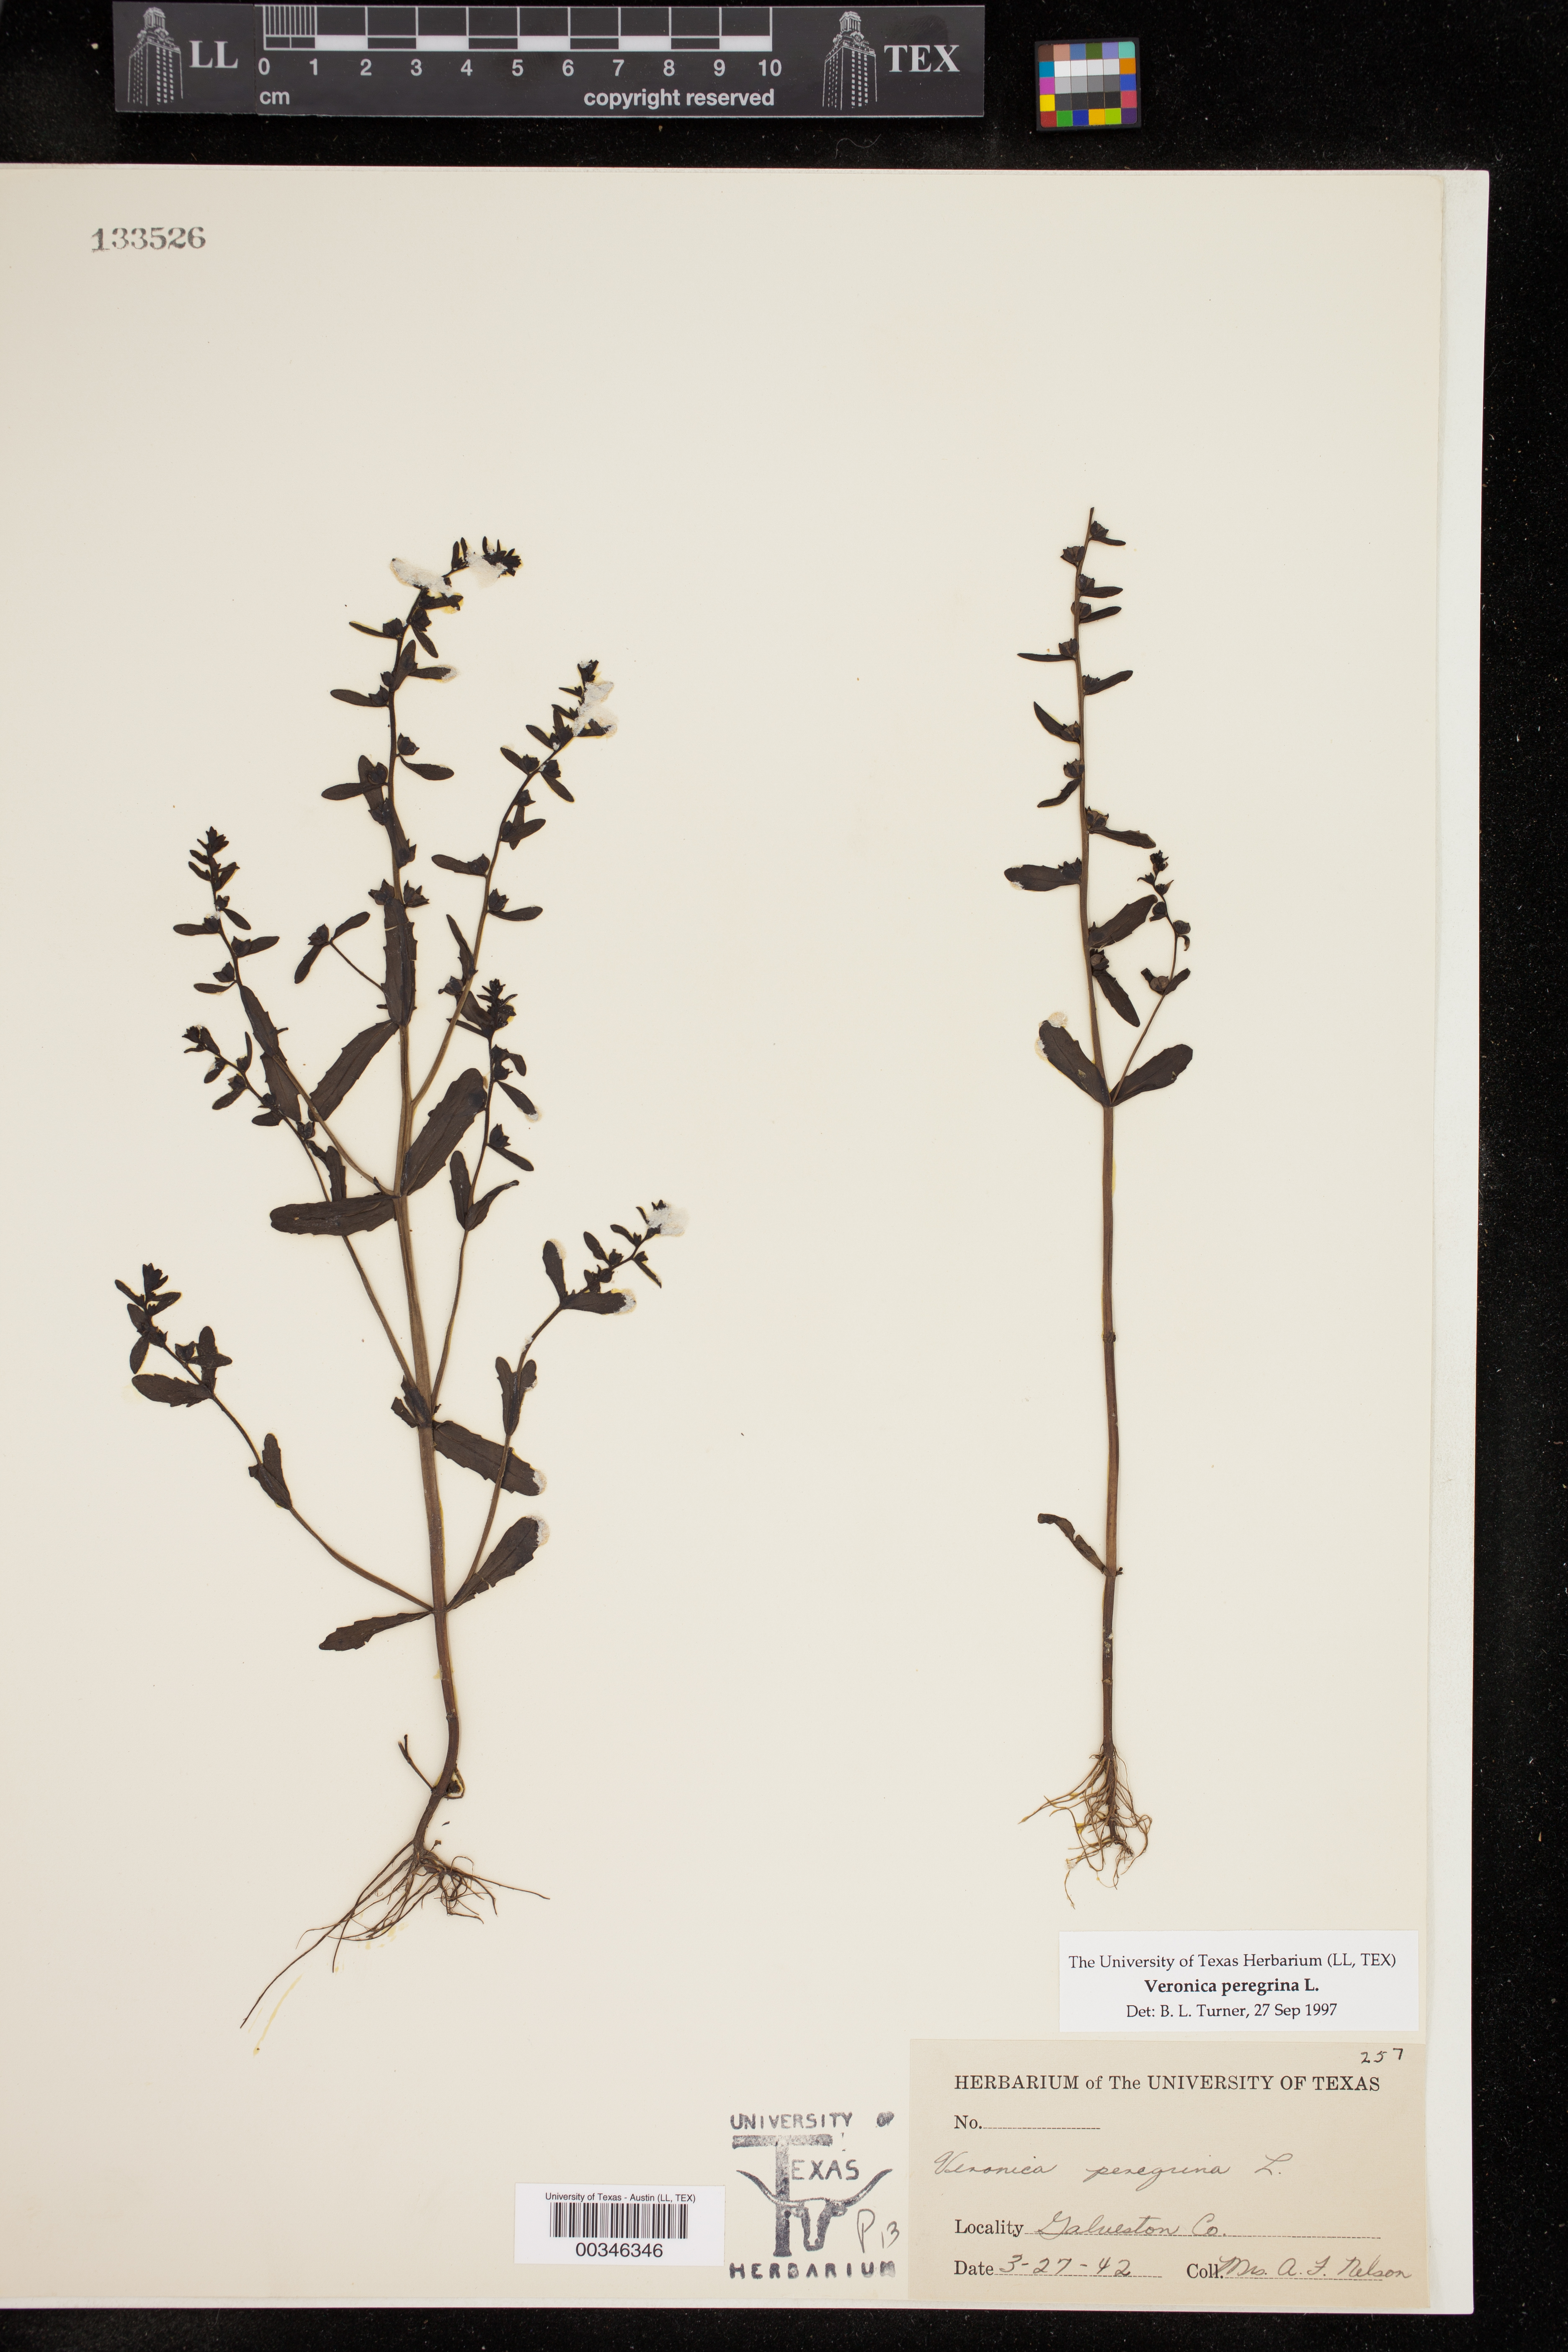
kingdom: Plantae
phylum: Tracheophyta
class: Magnoliopsida
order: Lamiales
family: Plantaginaceae
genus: Veronica
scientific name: Veronica peregrina
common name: Neckweed
